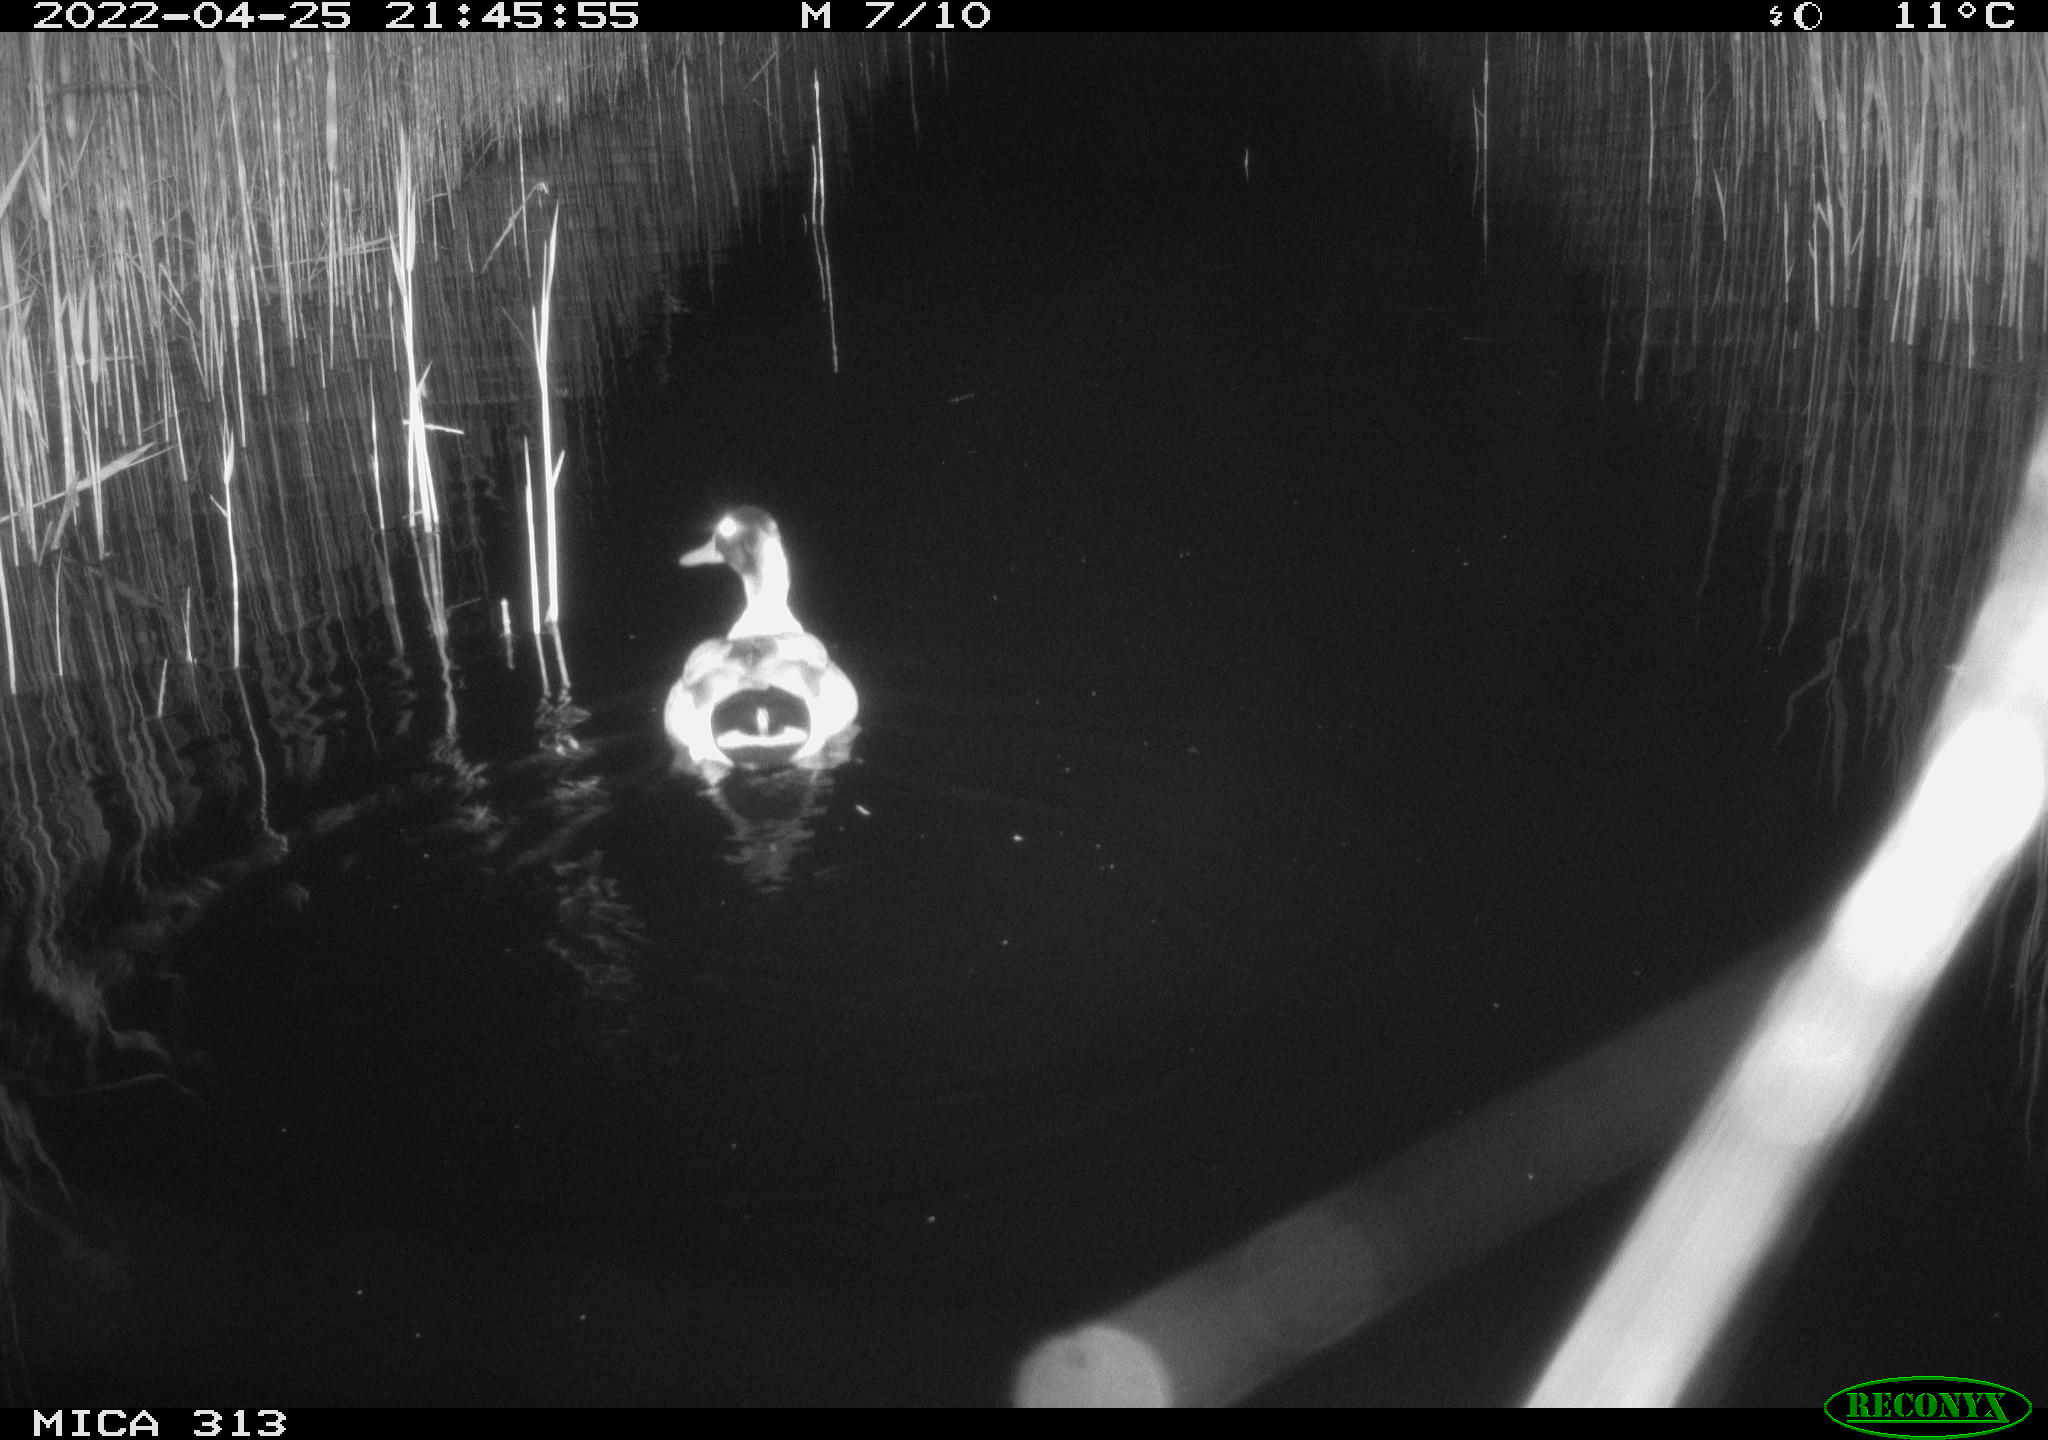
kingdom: Animalia
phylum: Chordata
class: Aves
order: Anseriformes
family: Anatidae
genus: Anas
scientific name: Anas platyrhynchos
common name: Mallard
